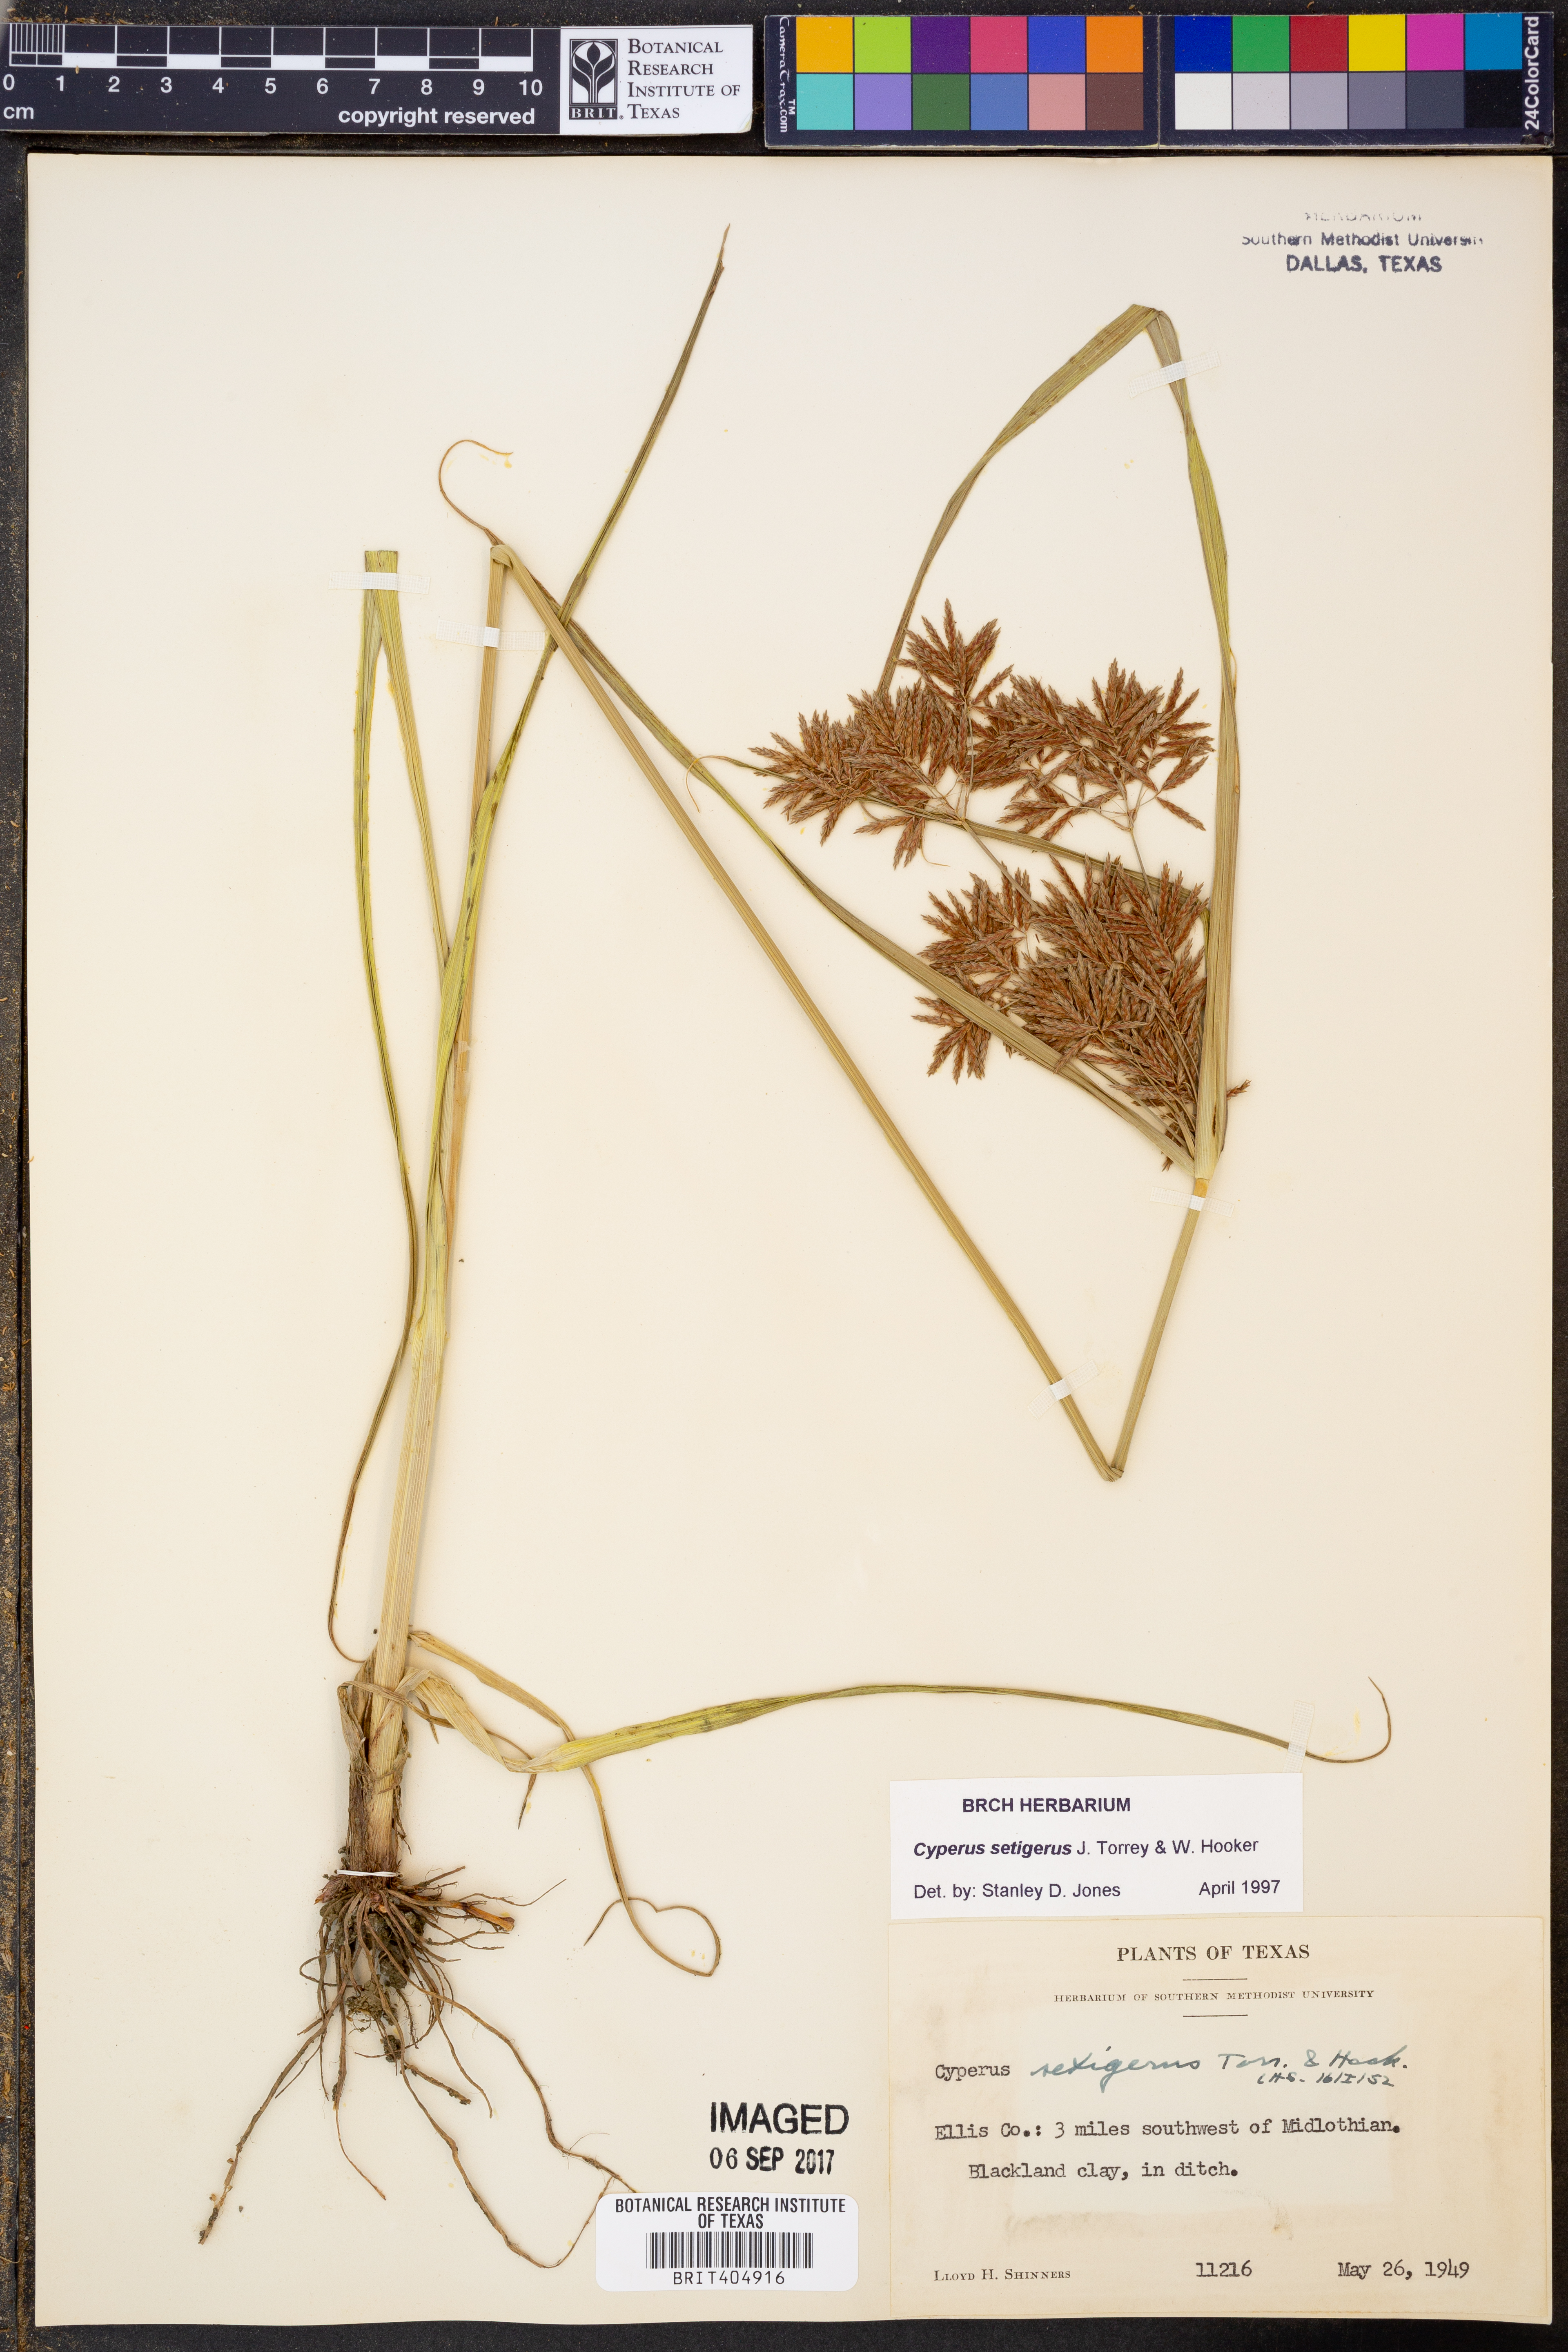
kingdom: Plantae
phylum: Tracheophyta
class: Liliopsida
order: Poales
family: Cyperaceae
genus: Cyperus
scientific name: Cyperus setigerus
